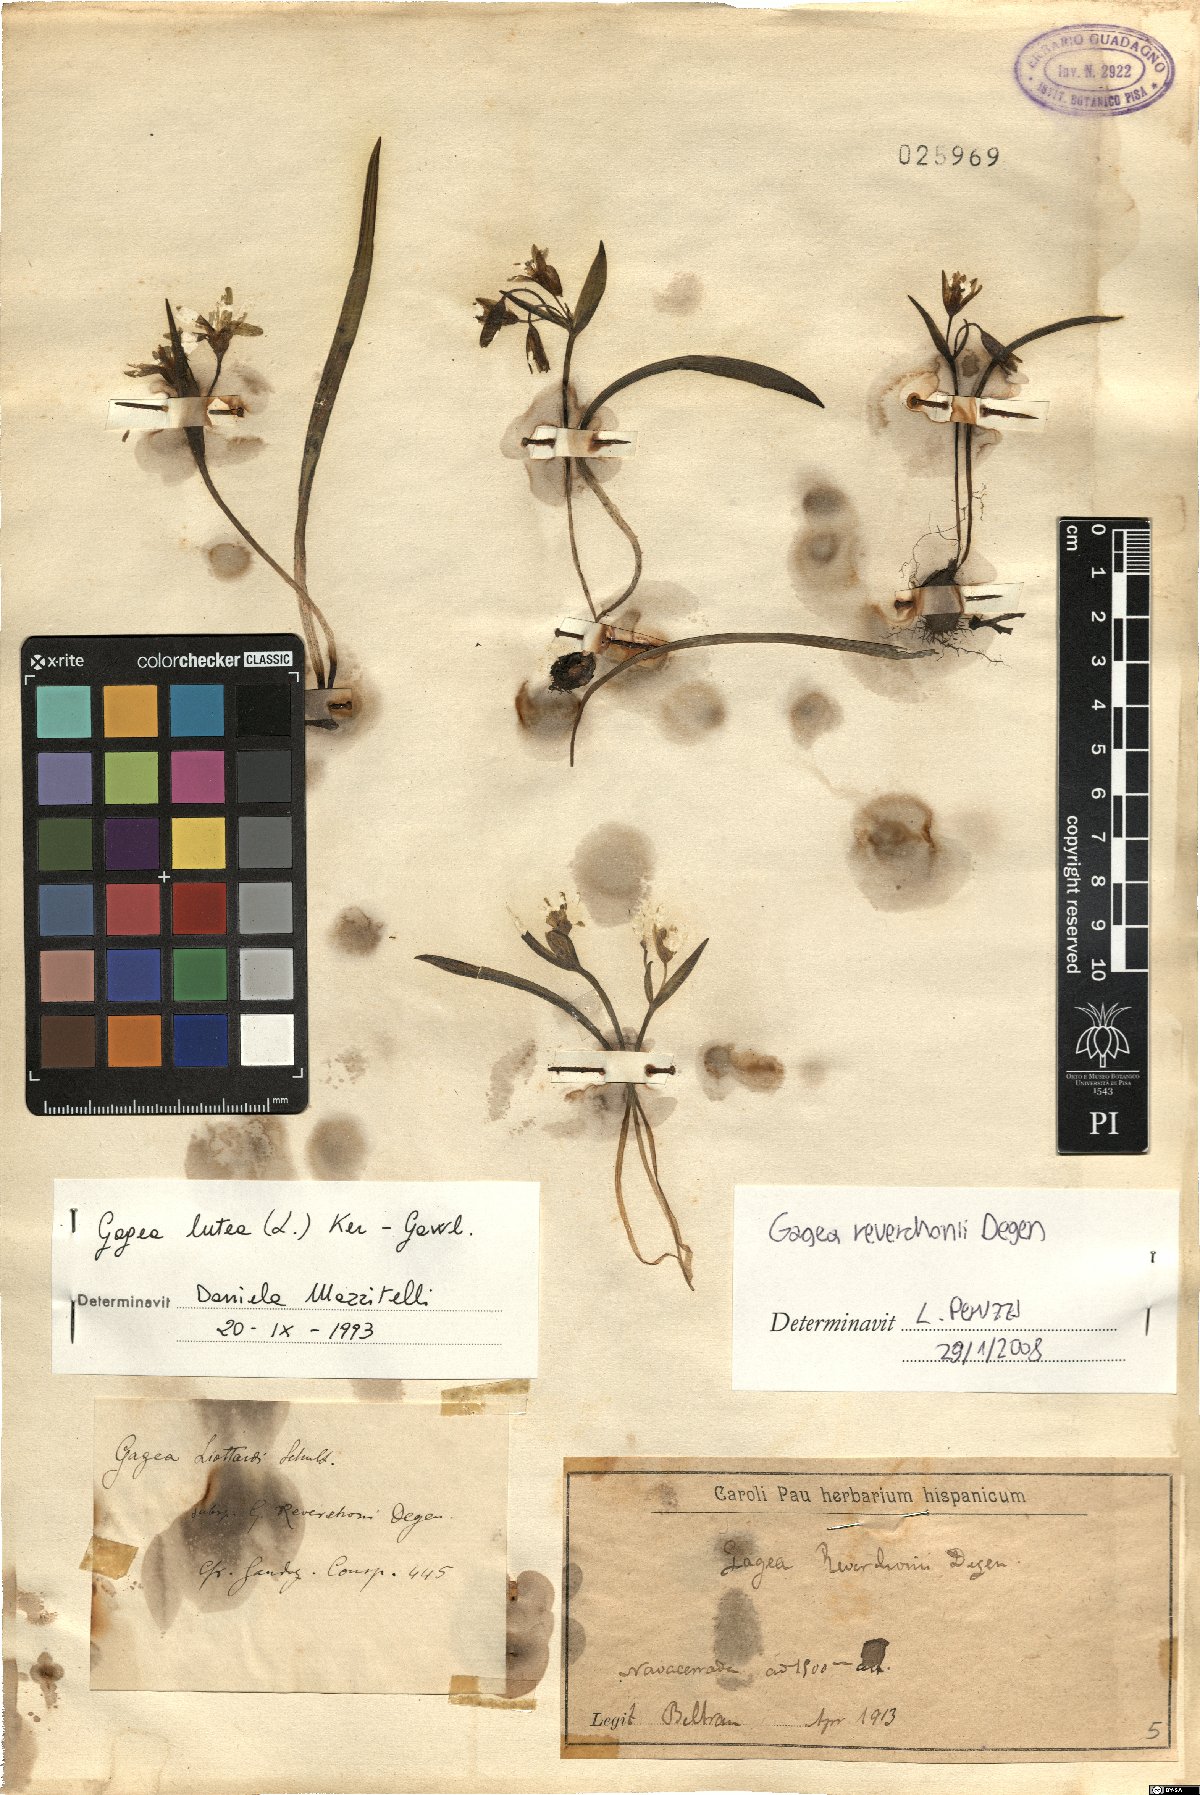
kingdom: Plantae
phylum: Tracheophyta
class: Liliopsida
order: Liliales
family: Liliaceae
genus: Gagea
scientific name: Gagea reverchonii
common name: Reverchon’s gagea
